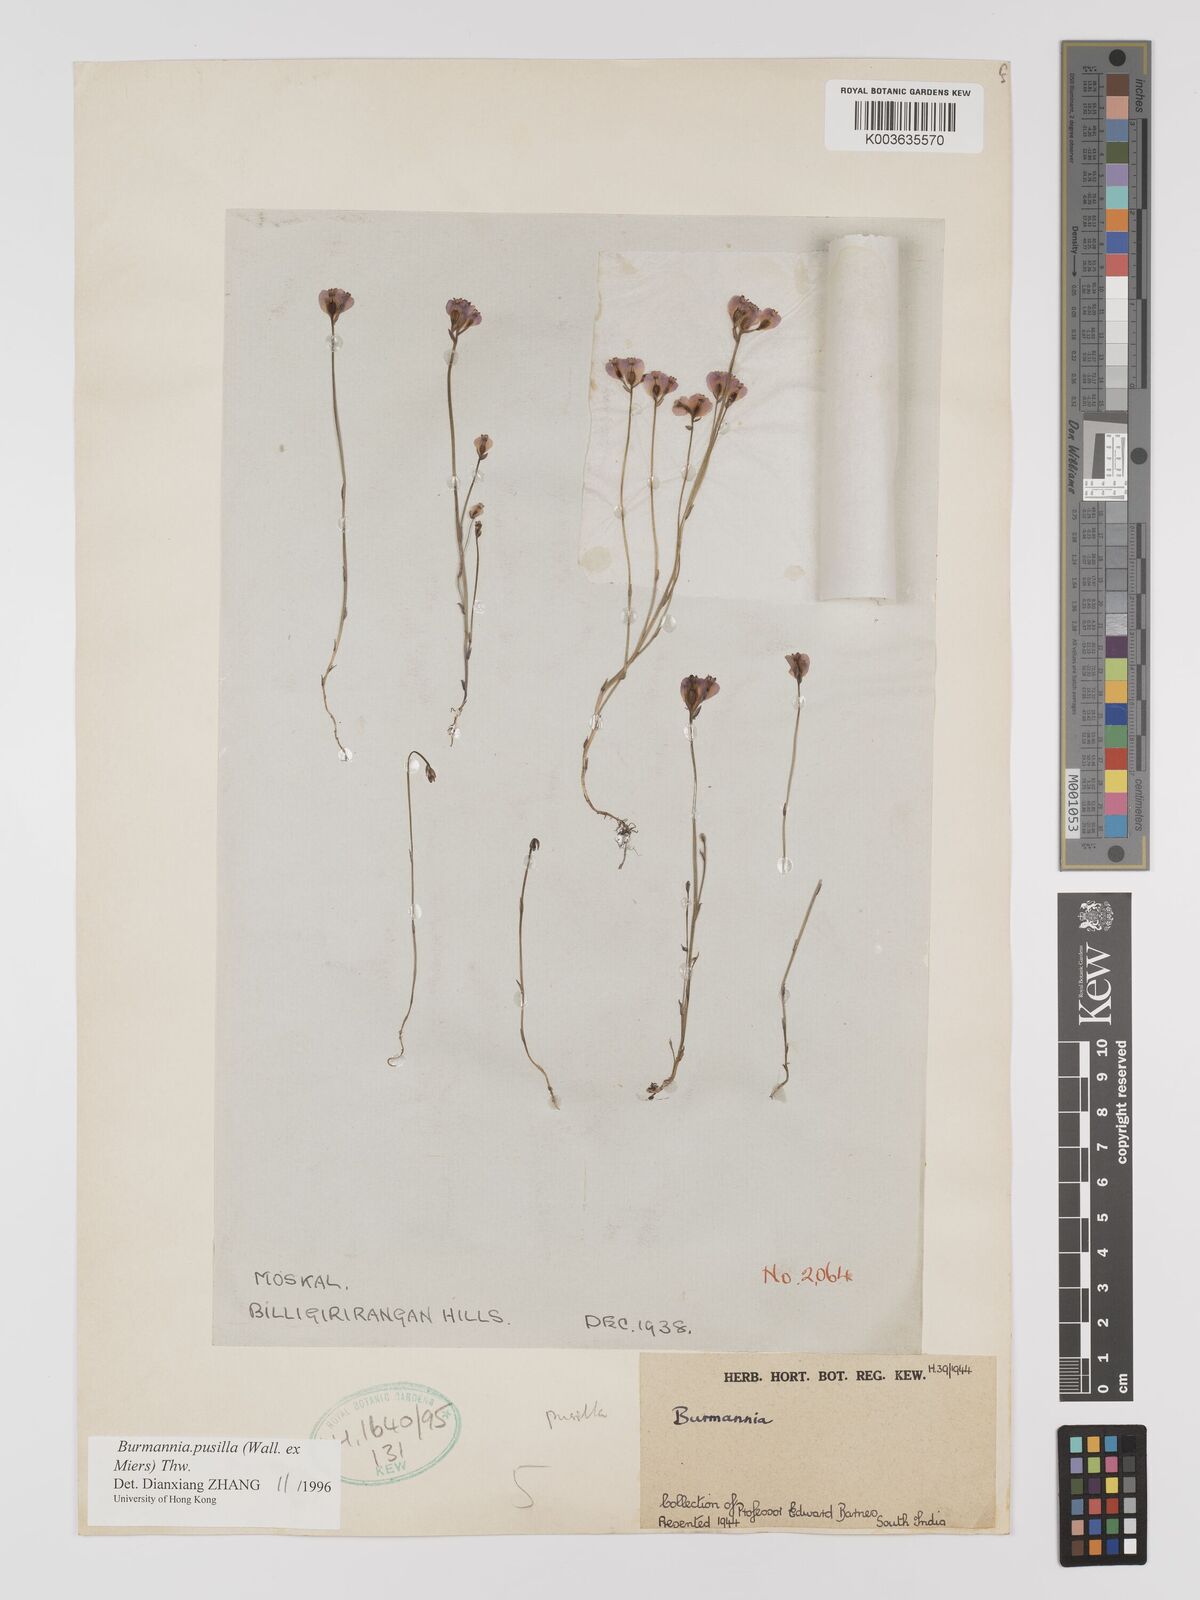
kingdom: Plantae
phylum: Tracheophyta
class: Liliopsida
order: Dioscoreales
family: Burmanniaceae
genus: Burmannia
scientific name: Burmannia pusilla
